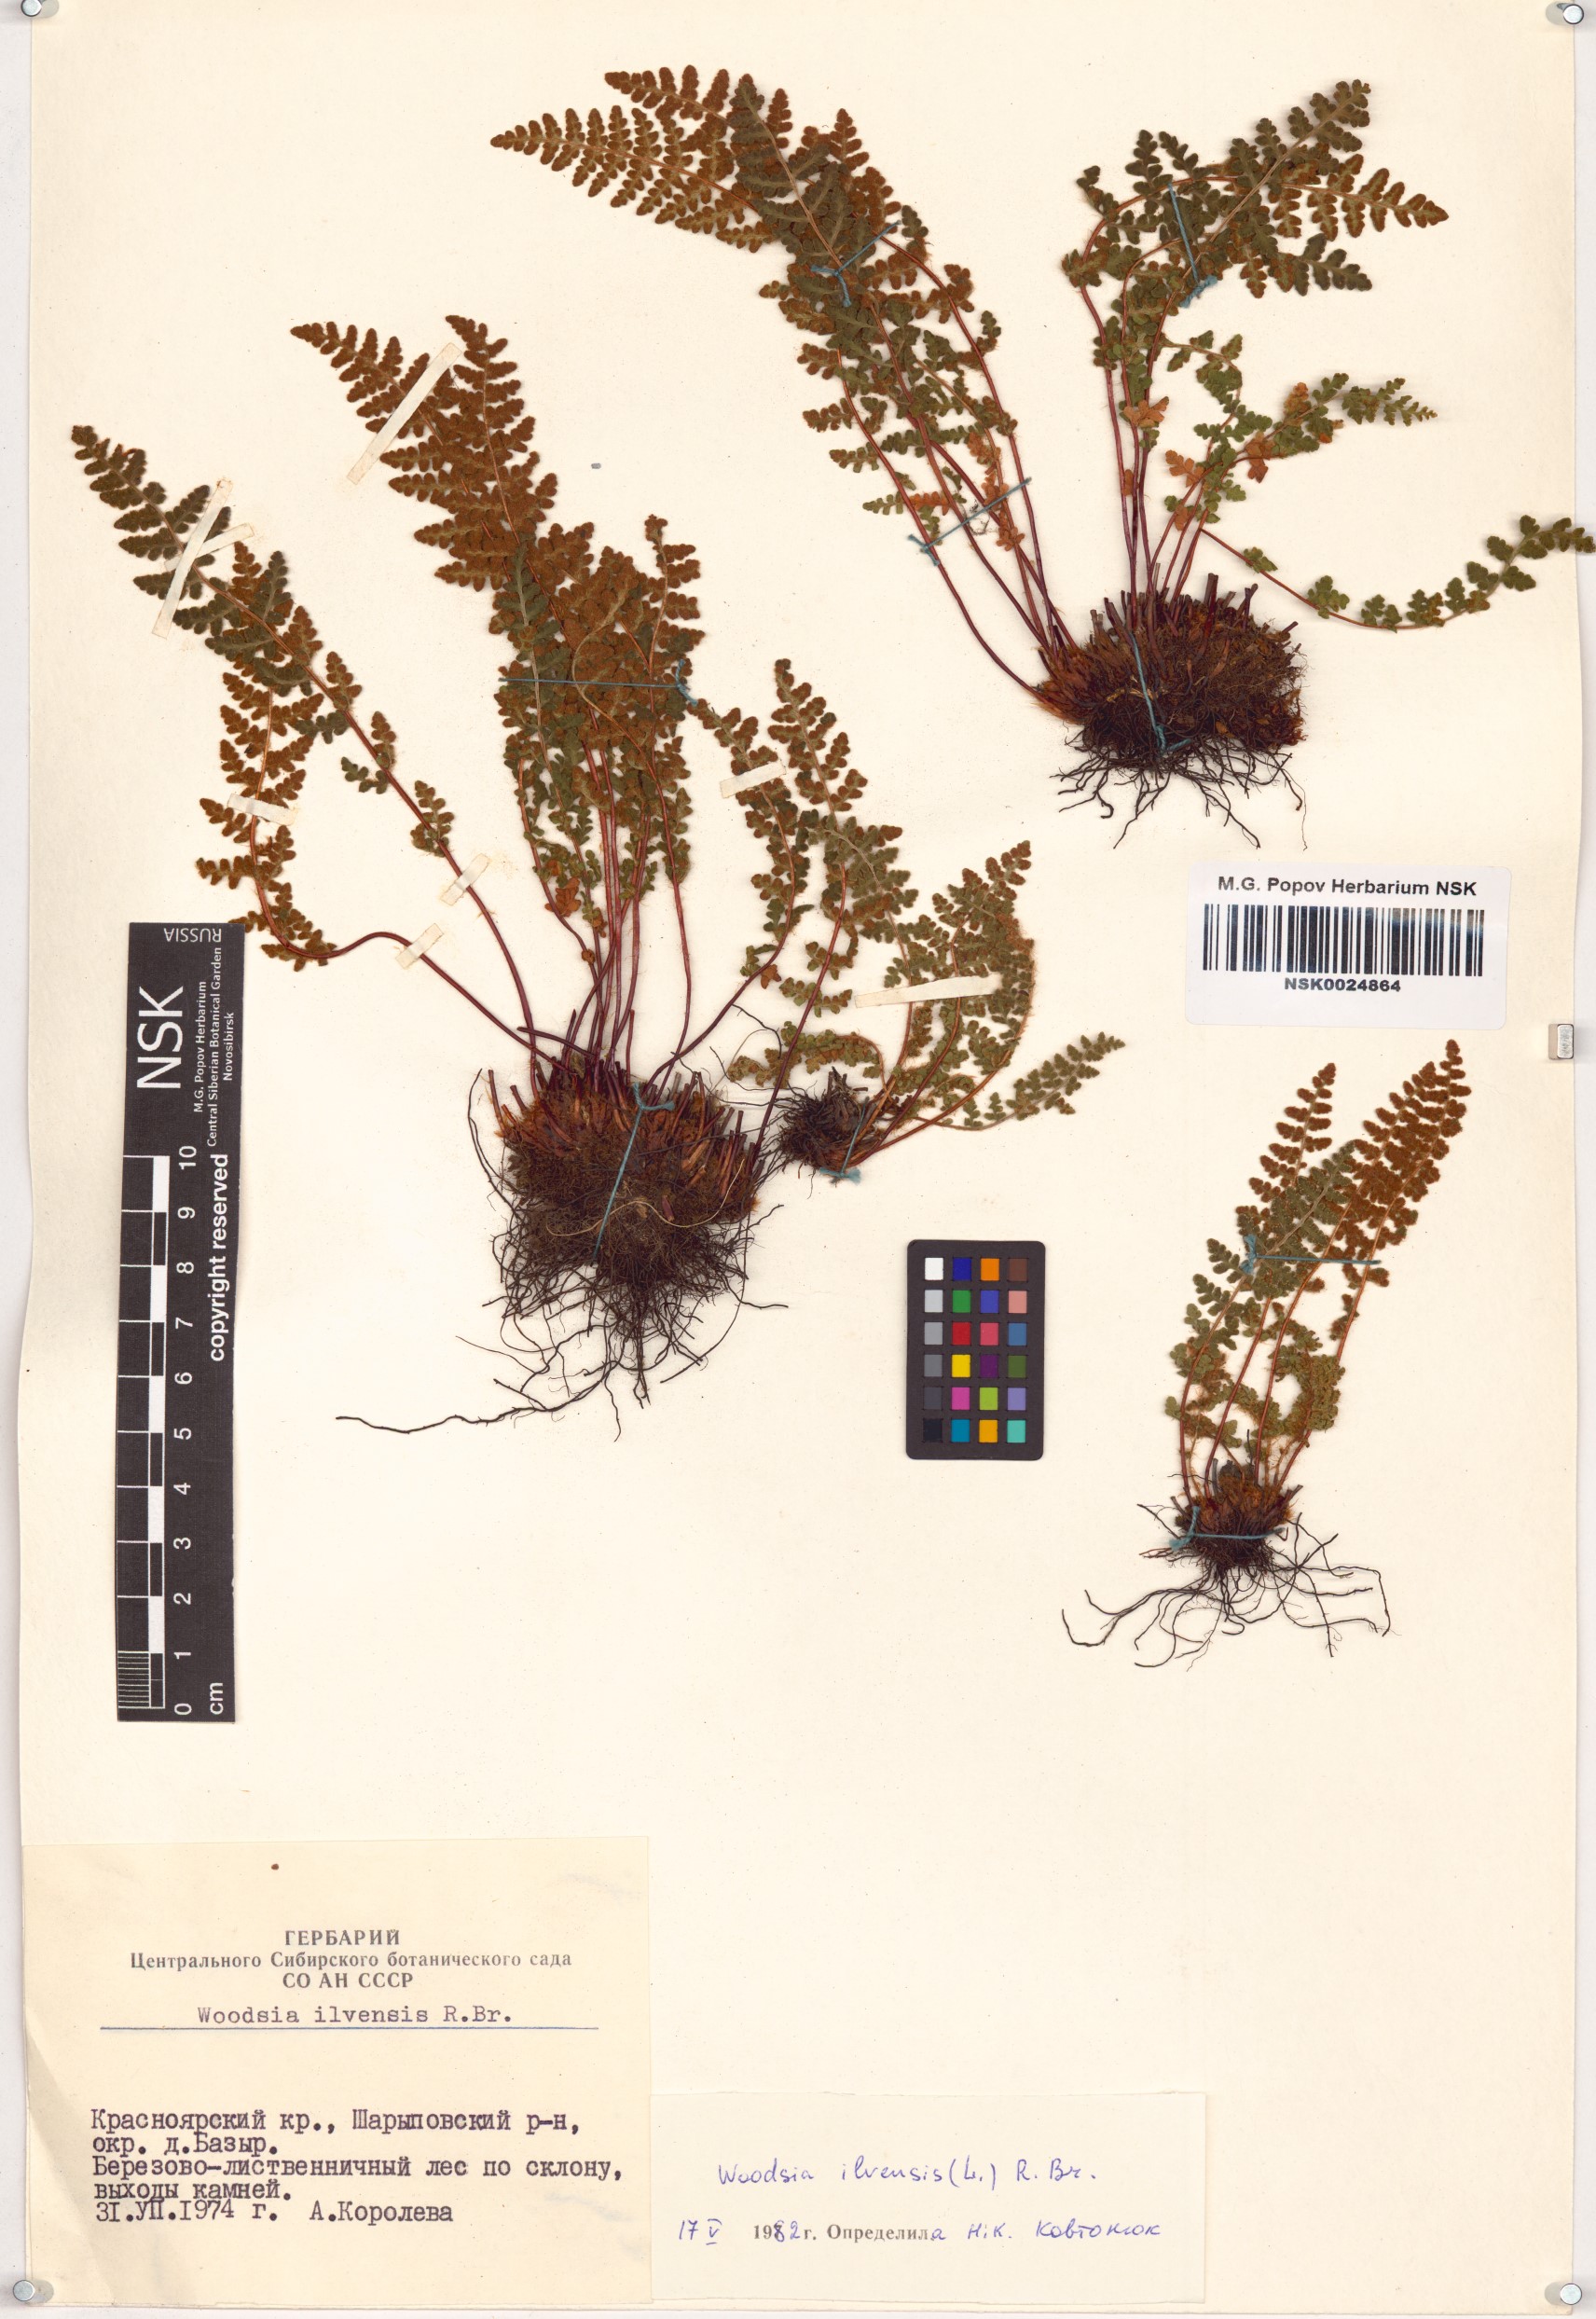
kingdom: Plantae
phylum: Tracheophyta
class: Polypodiopsida
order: Polypodiales
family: Woodsiaceae
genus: Woodsia
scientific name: Woodsia ilvensis
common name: Fragrant woodsia
